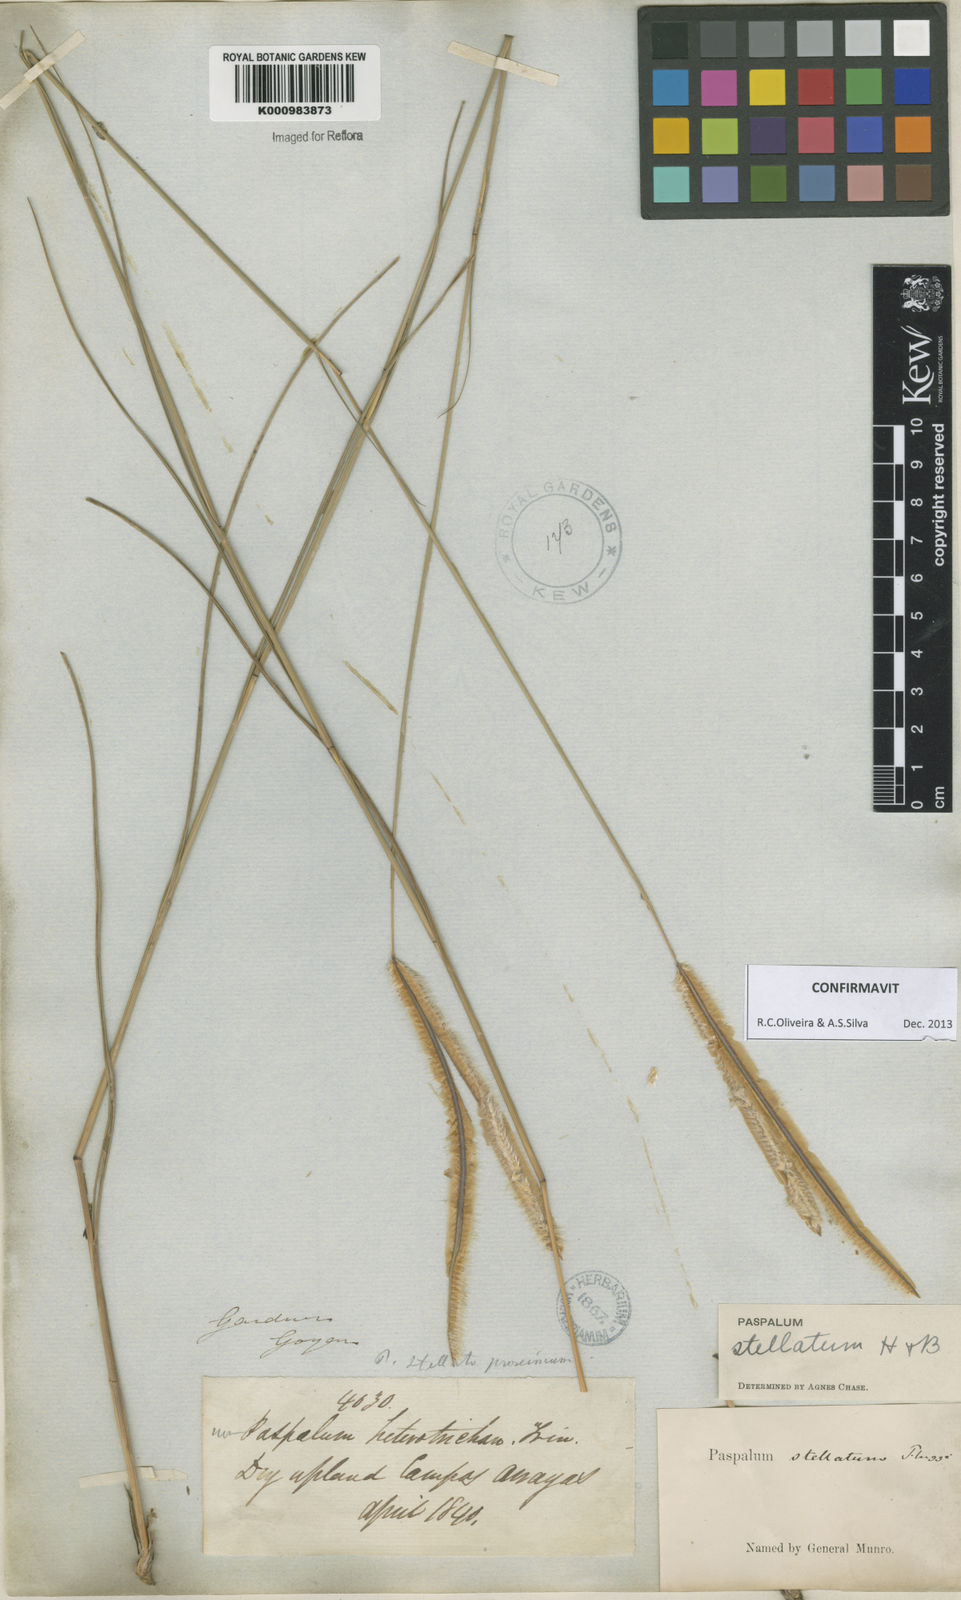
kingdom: Plantae
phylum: Tracheophyta
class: Liliopsida
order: Poales
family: Poaceae
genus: Paspalum
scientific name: Paspalum
